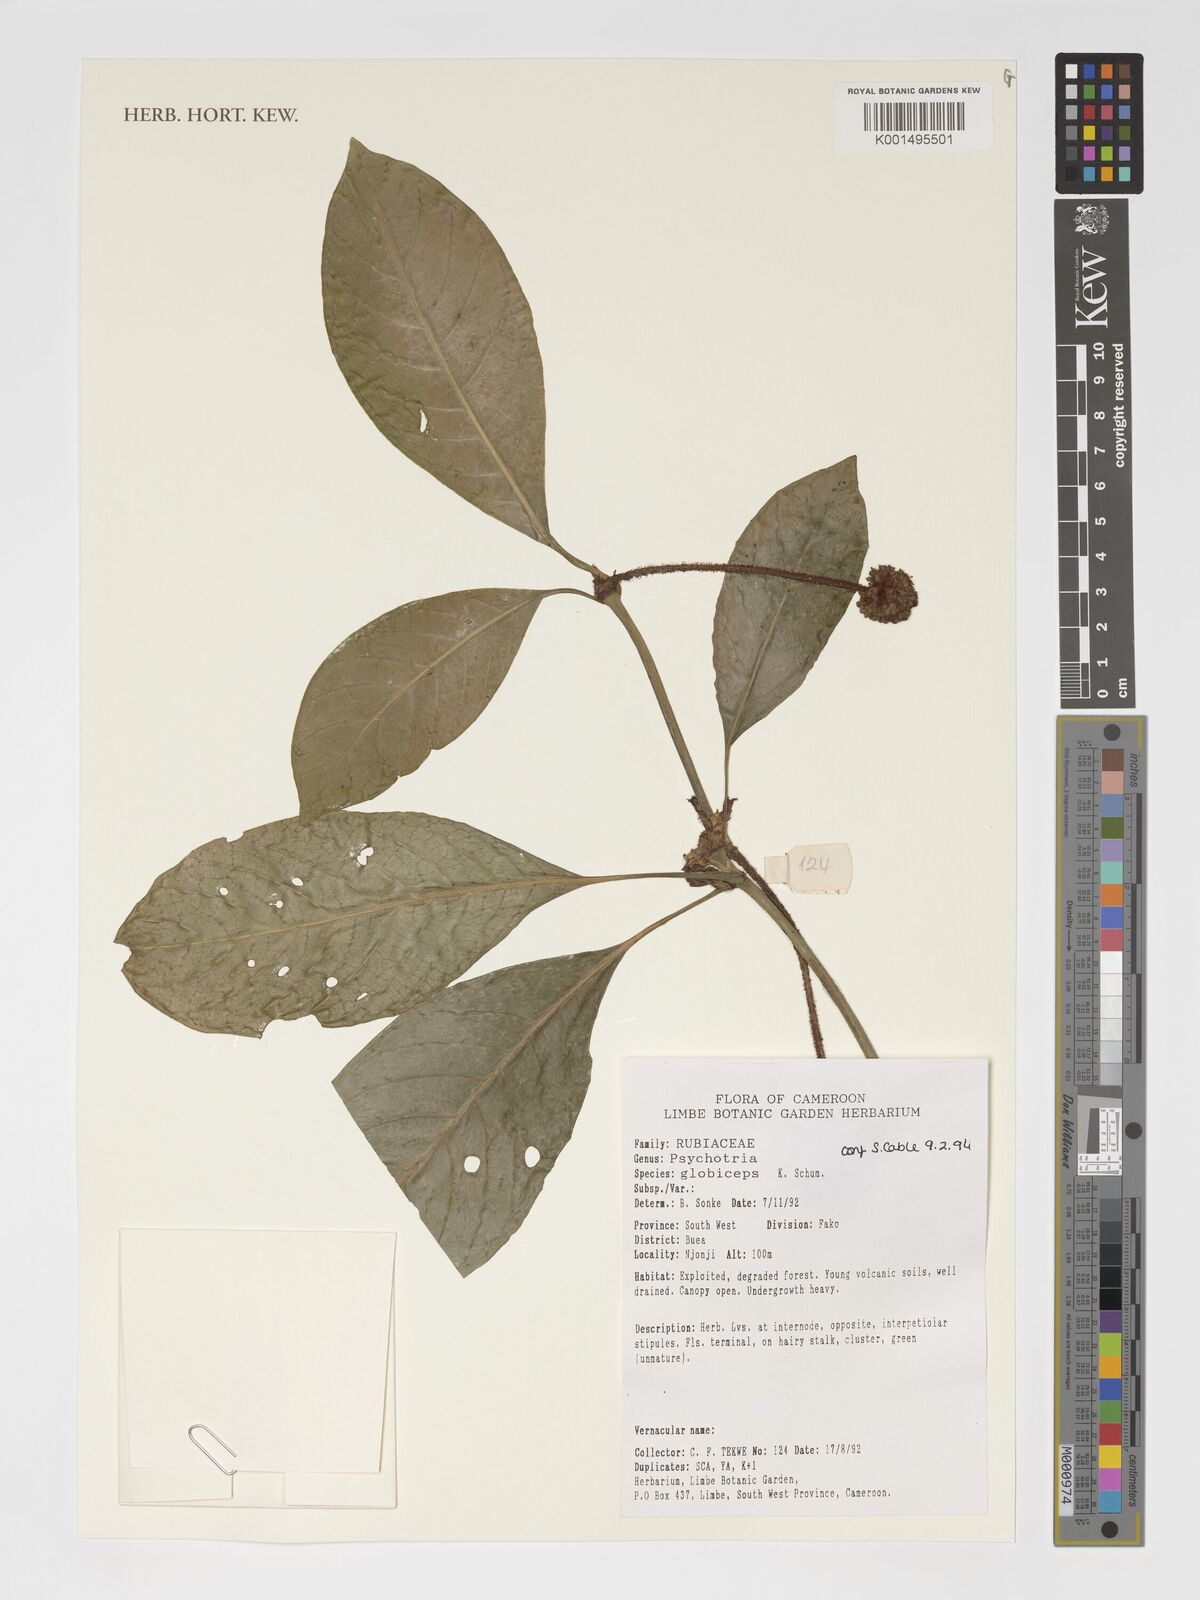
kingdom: Plantae
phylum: Tracheophyta
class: Magnoliopsida
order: Gentianales
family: Rubiaceae
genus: Psychotria
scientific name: Psychotria globiceps
